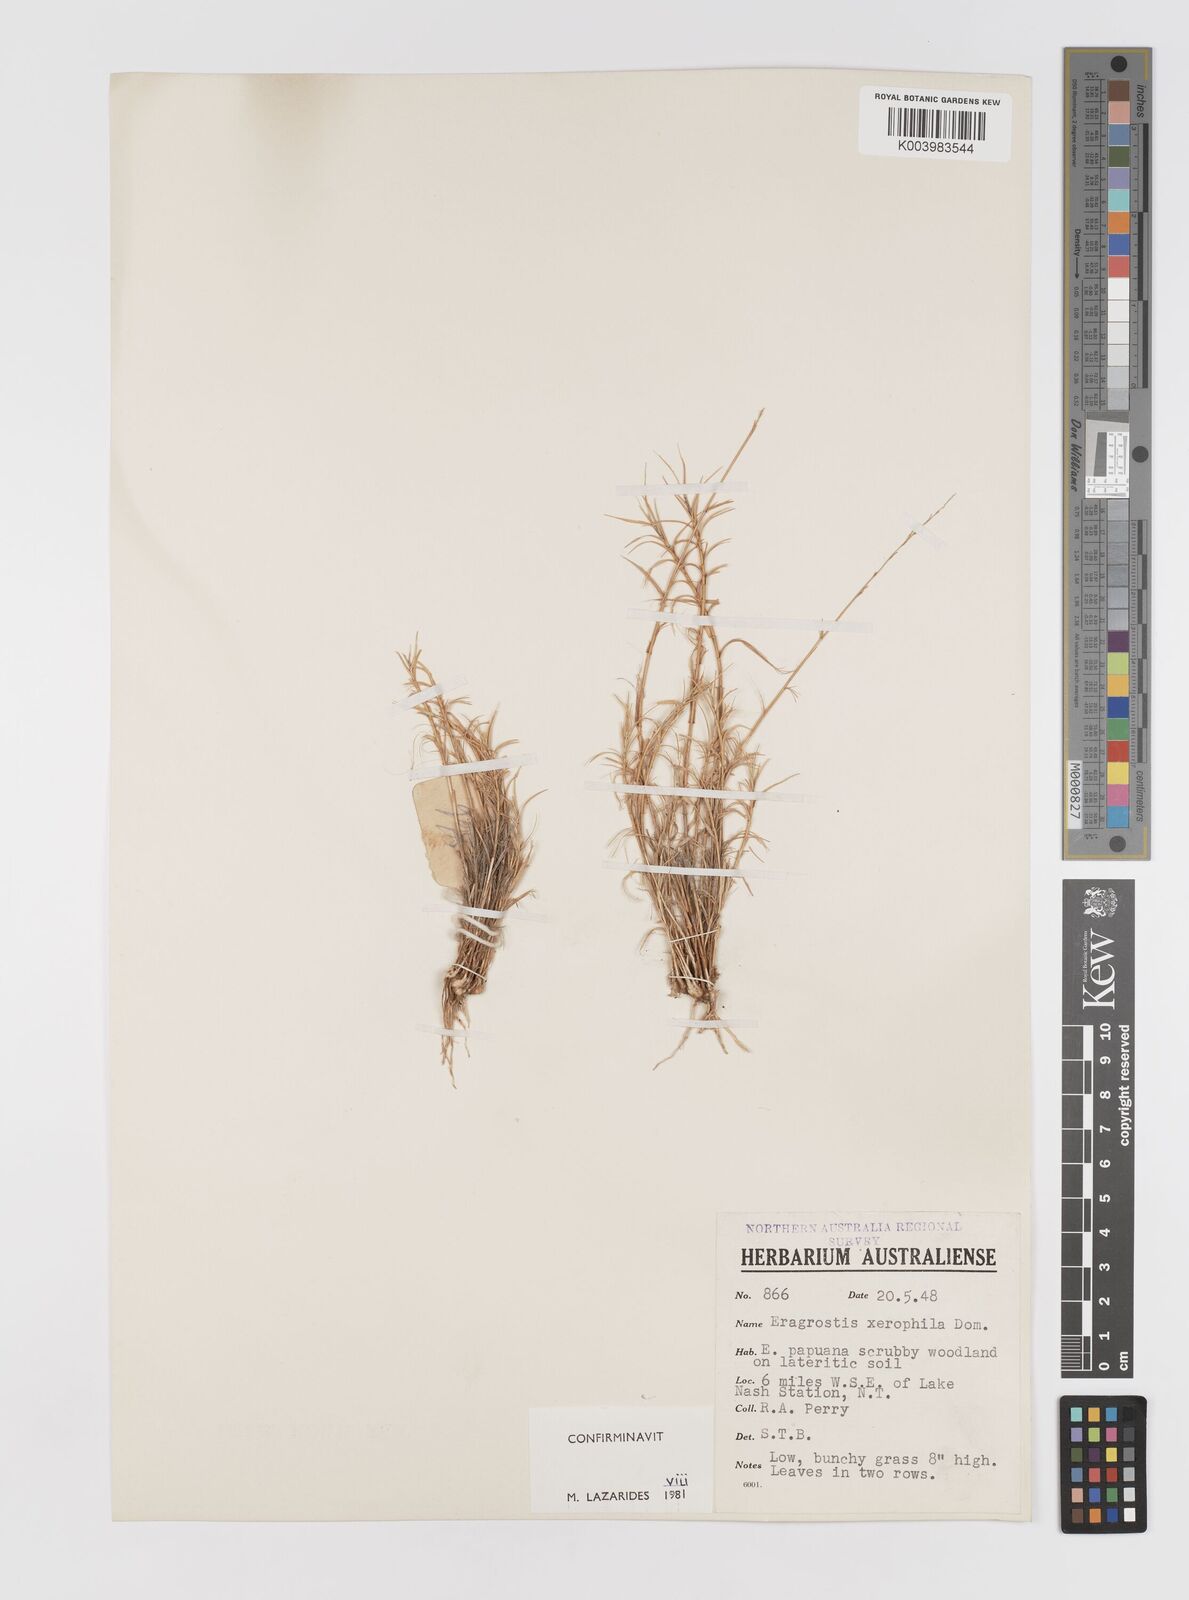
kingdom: Plantae
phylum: Tracheophyta
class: Liliopsida
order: Poales
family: Poaceae
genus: Eragrostis
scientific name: Eragrostis xerophila
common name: Wire wandarrie grass
